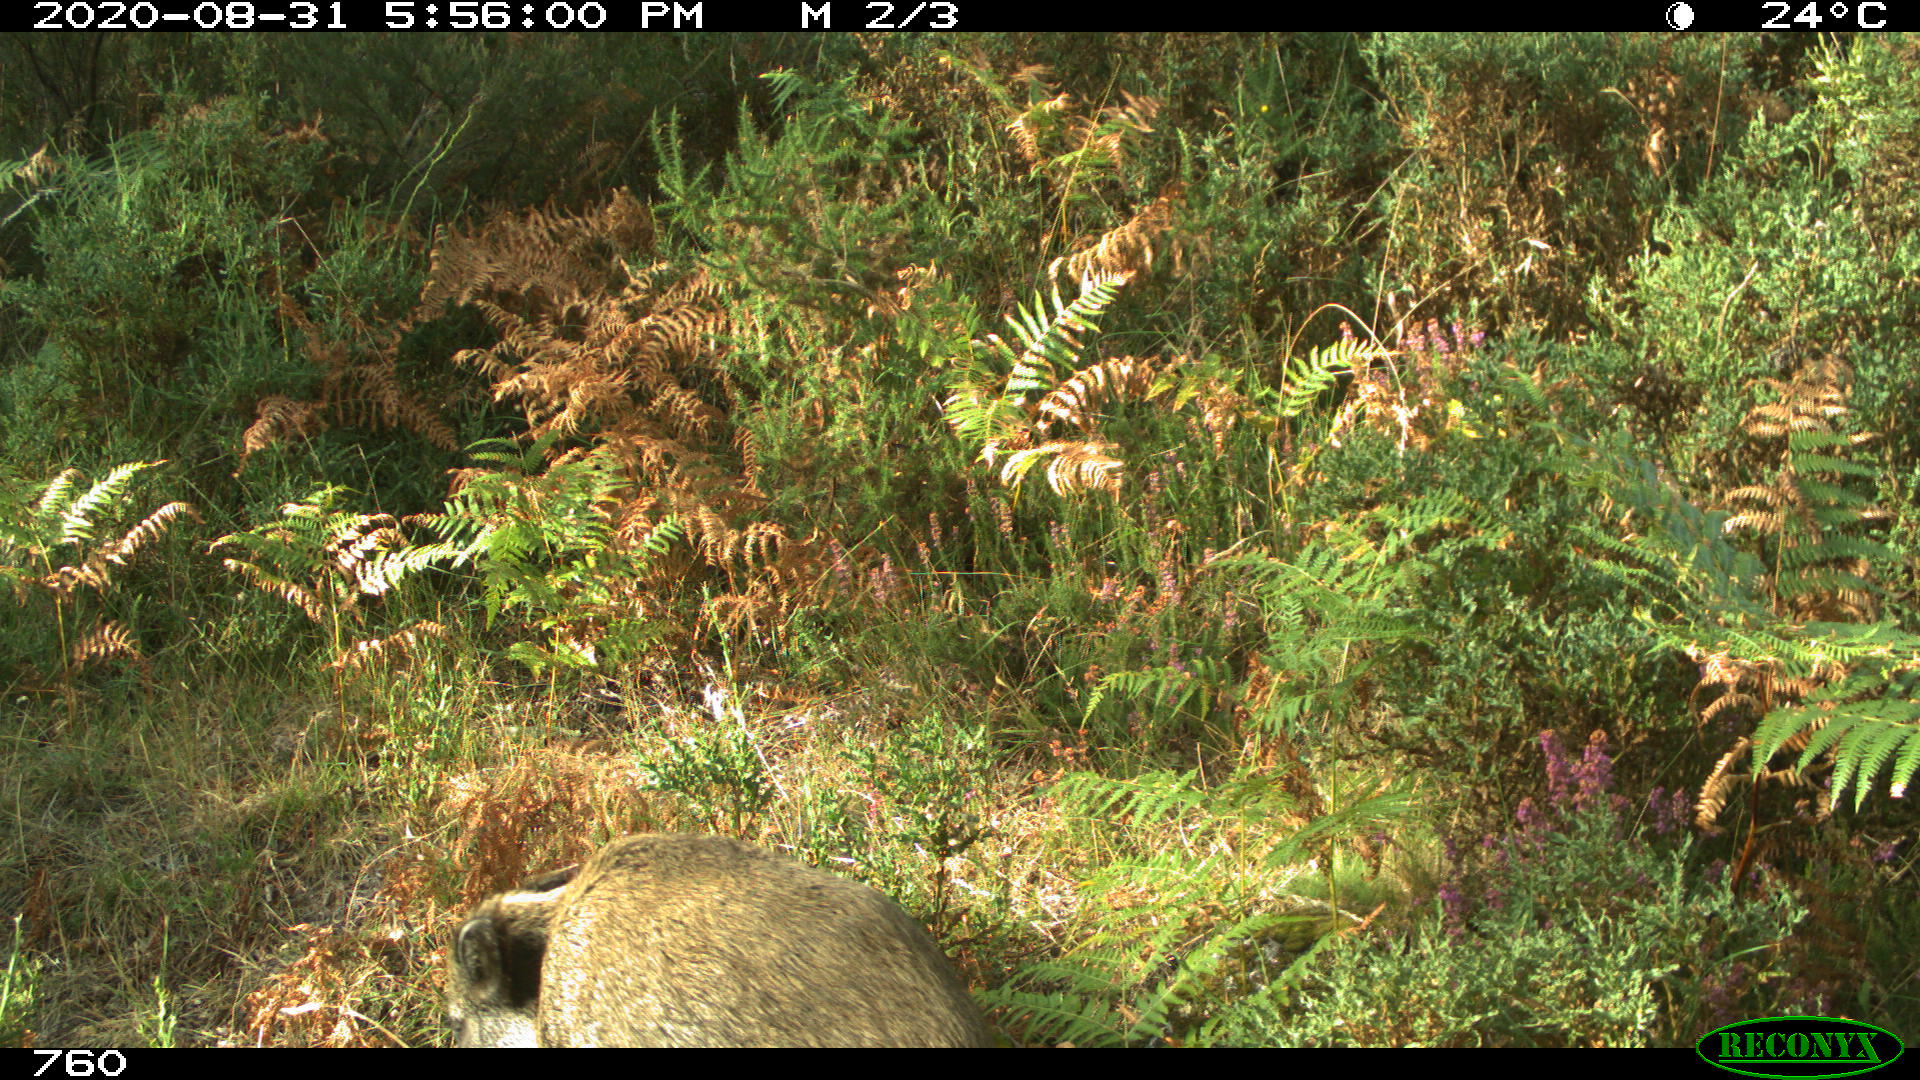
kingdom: Animalia
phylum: Chordata
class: Mammalia
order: Artiodactyla
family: Suidae
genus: Sus
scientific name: Sus scrofa
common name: Wild boar
